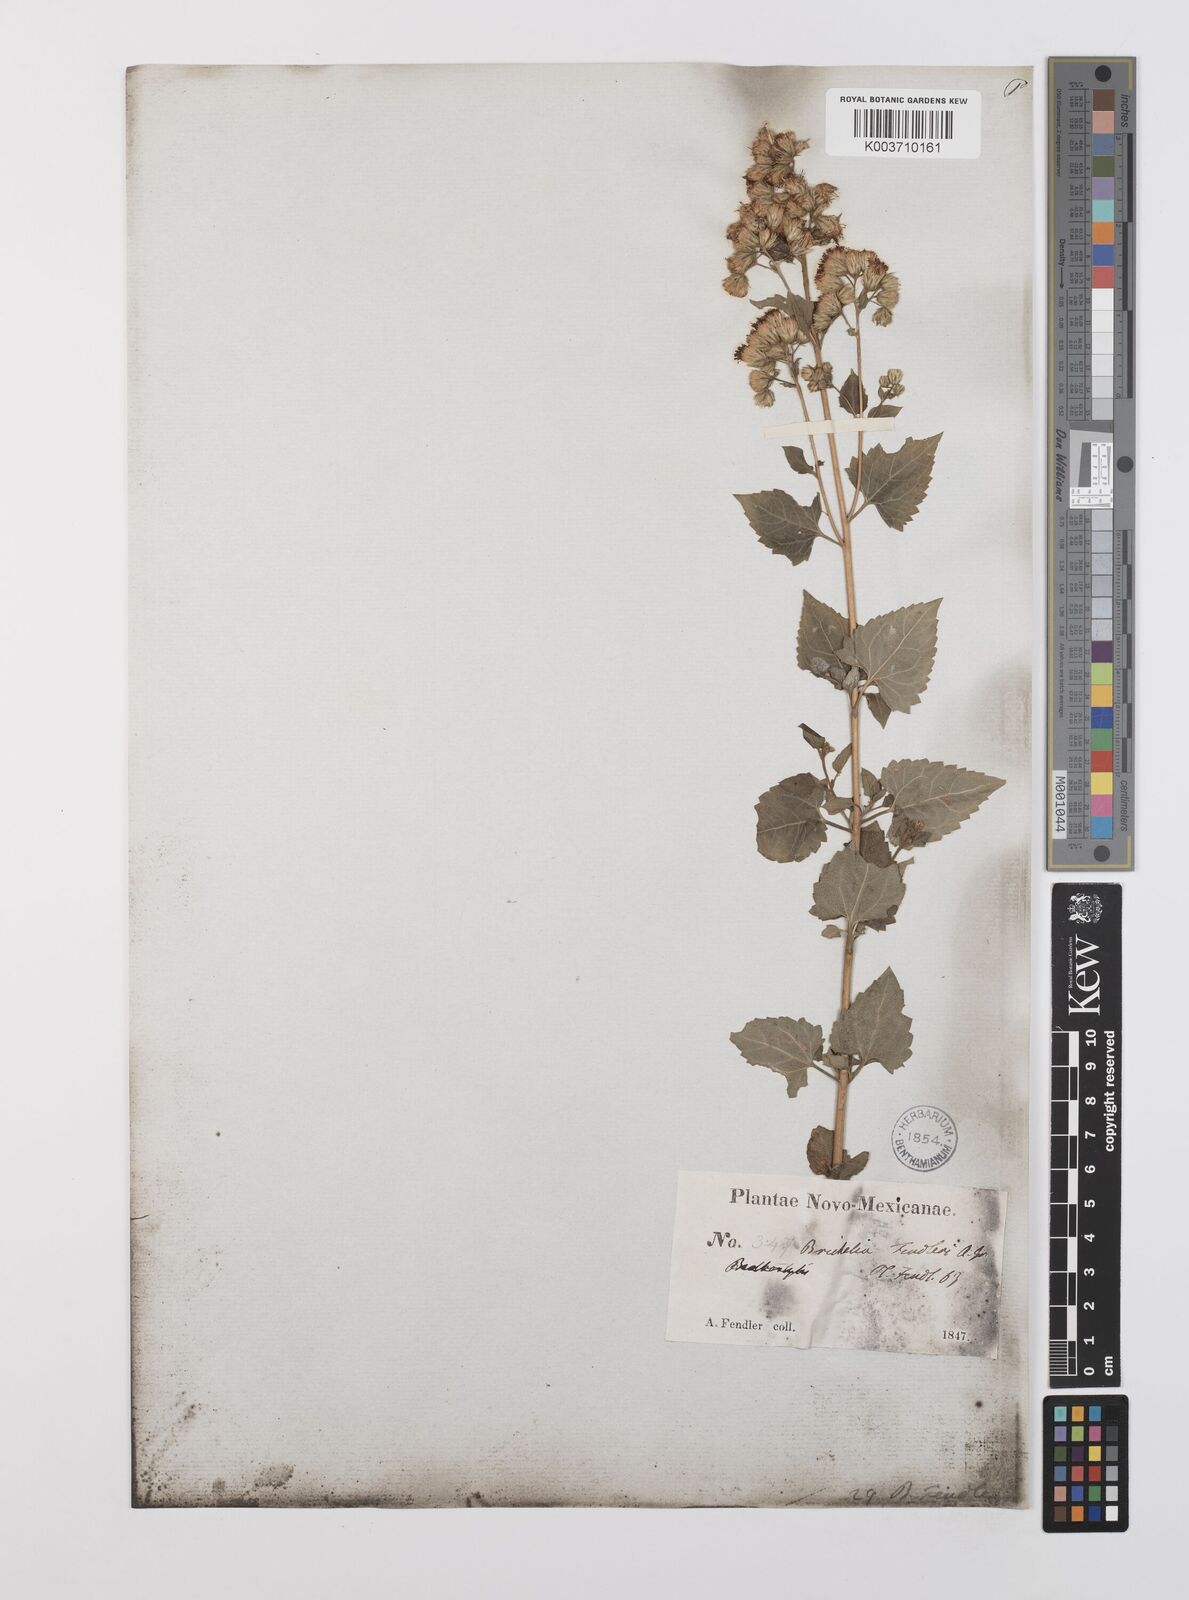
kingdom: Plantae
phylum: Tracheophyta
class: Magnoliopsida
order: Asterales
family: Asteraceae
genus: Brickelliastrum
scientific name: Brickelliastrum fendleri
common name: Fendler's-brickellbush
